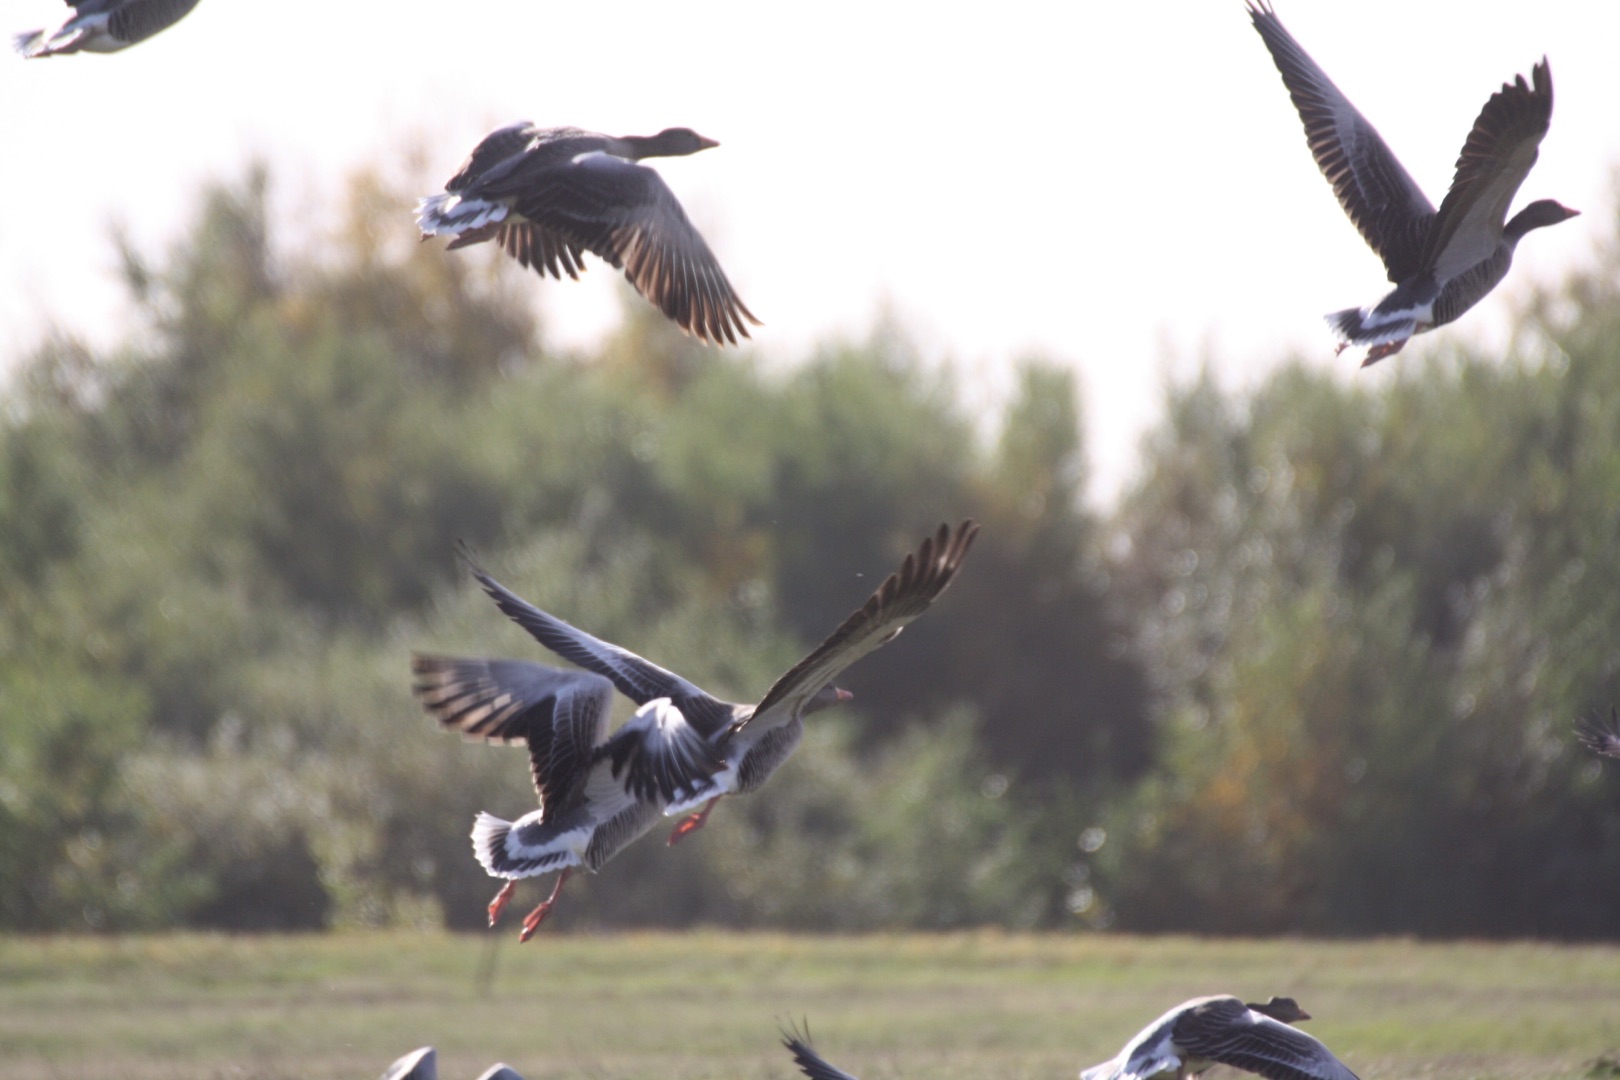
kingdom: Animalia
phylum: Chordata
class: Aves
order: Anseriformes
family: Anatidae
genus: Anser
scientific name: Anser anser
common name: Grågås
